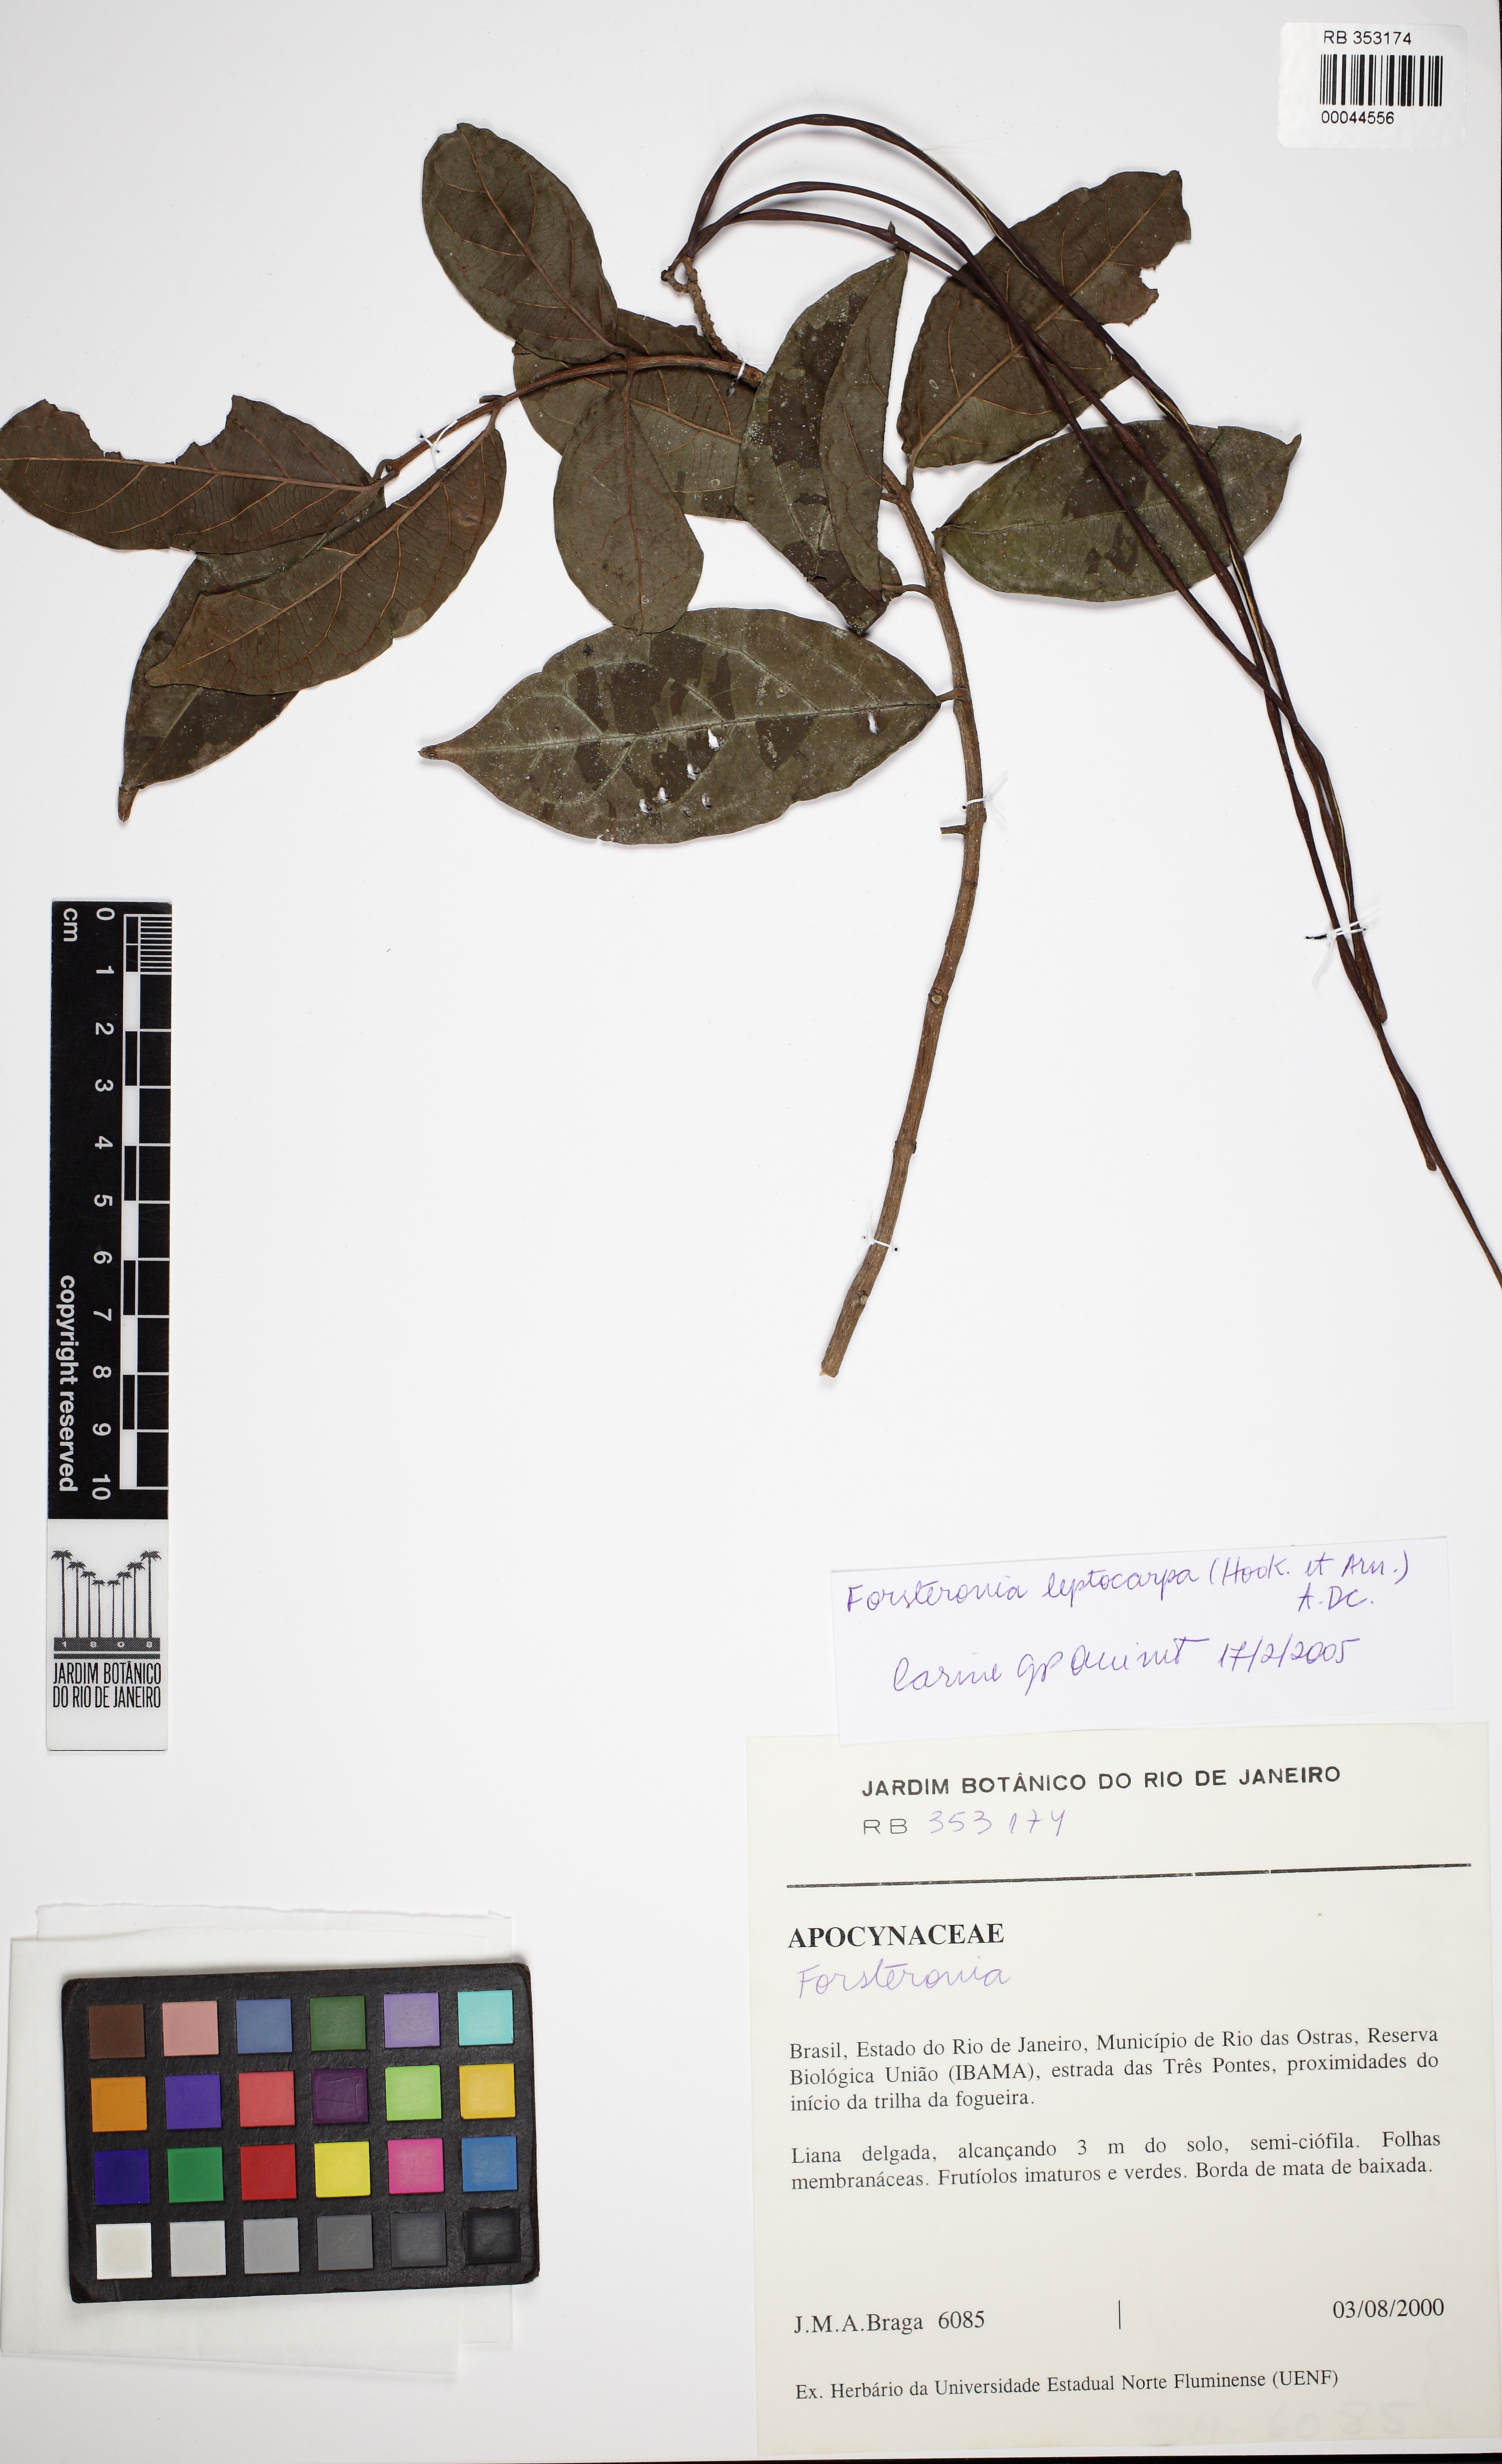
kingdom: Plantae
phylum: Tracheophyta
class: Magnoliopsida
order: Gentianales
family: Apocynaceae
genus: Forsteronia
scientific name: Forsteronia leptocarpa
